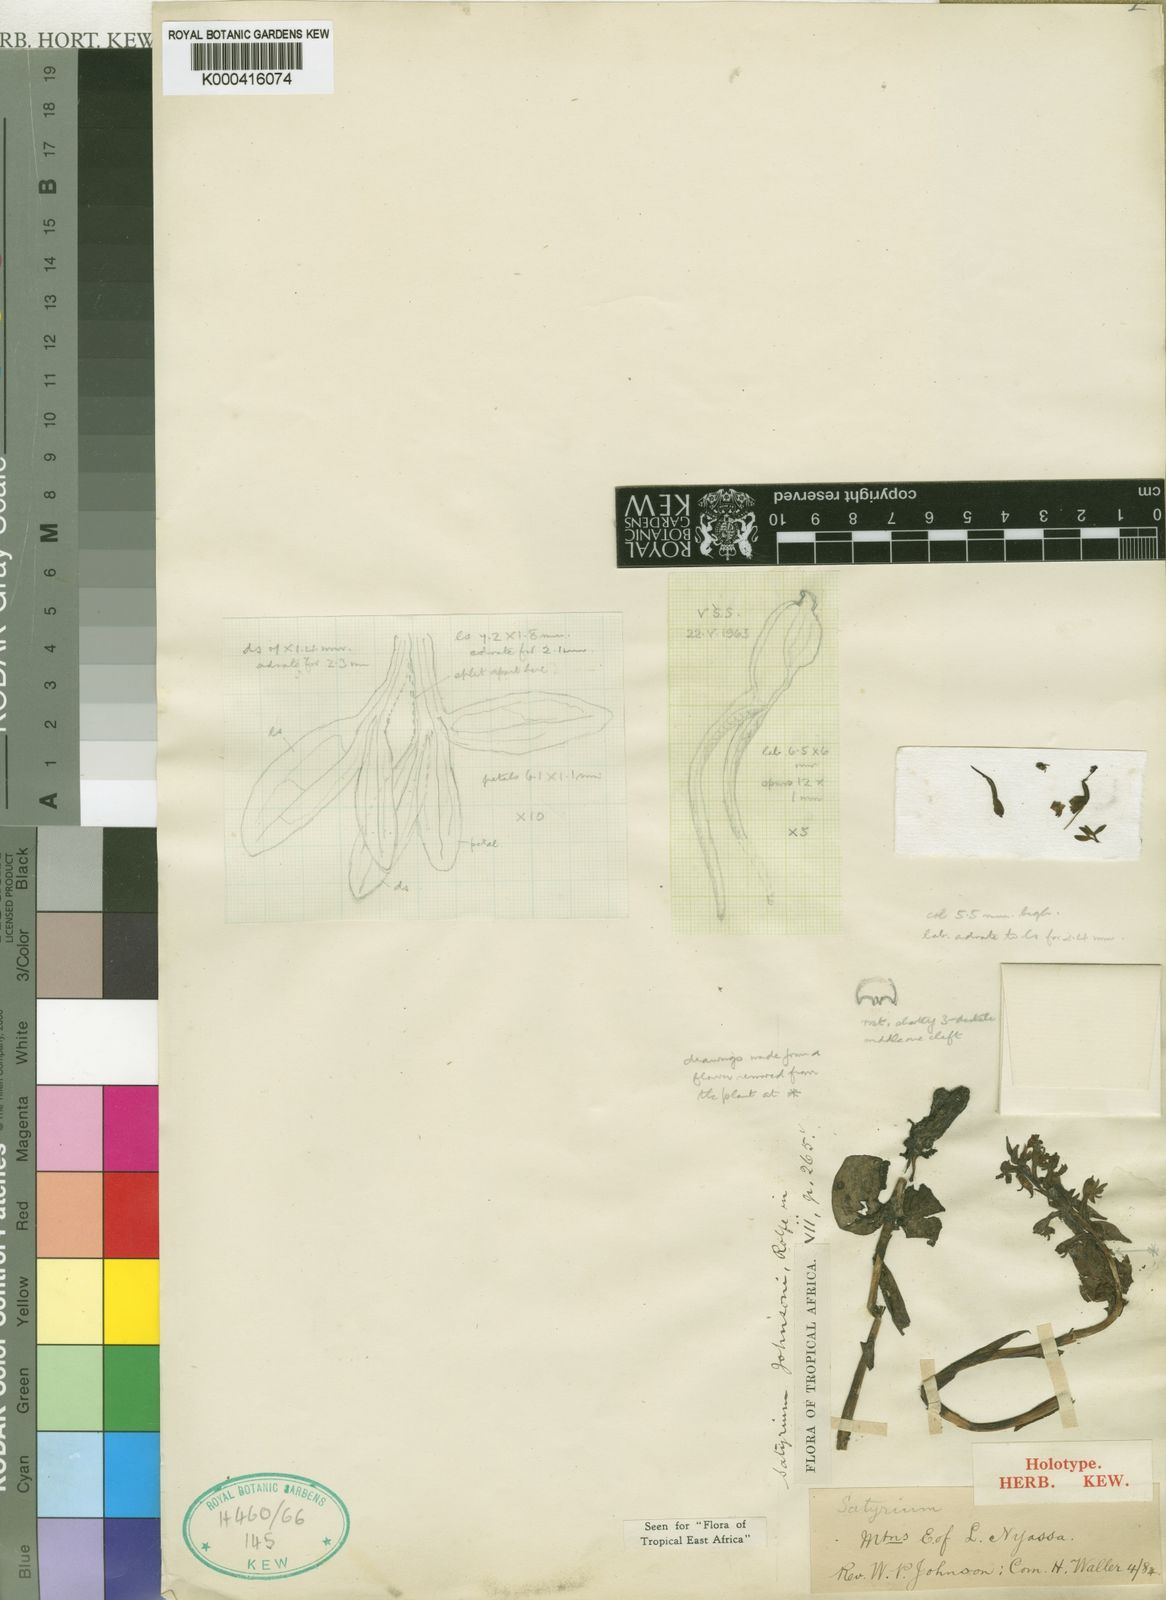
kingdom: Plantae
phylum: Tracheophyta
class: Liliopsida
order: Asparagales
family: Orchidaceae
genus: Satyrium
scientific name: Satyrium johnsonii
